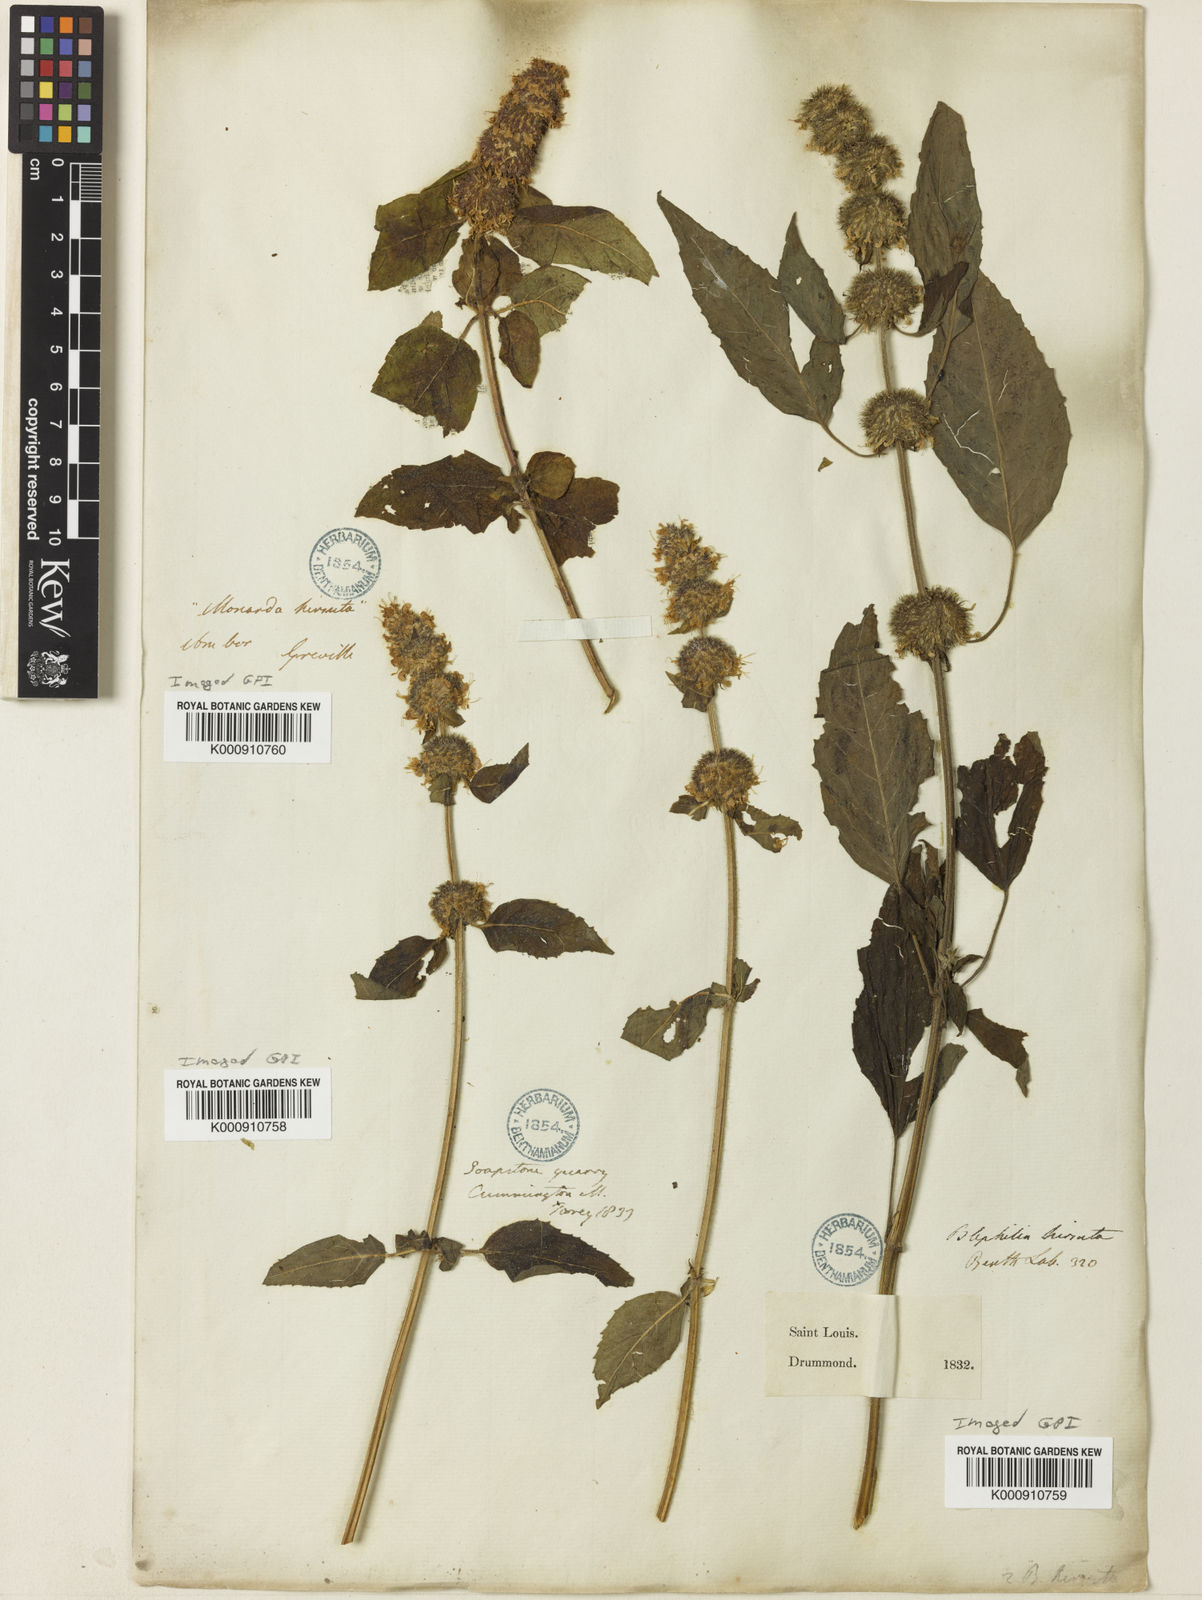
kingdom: Plantae
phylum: Tracheophyta
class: Magnoliopsida
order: Lamiales
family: Lamiaceae
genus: Blephilia
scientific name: Blephilia hirsuta
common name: Hairy blephilia
